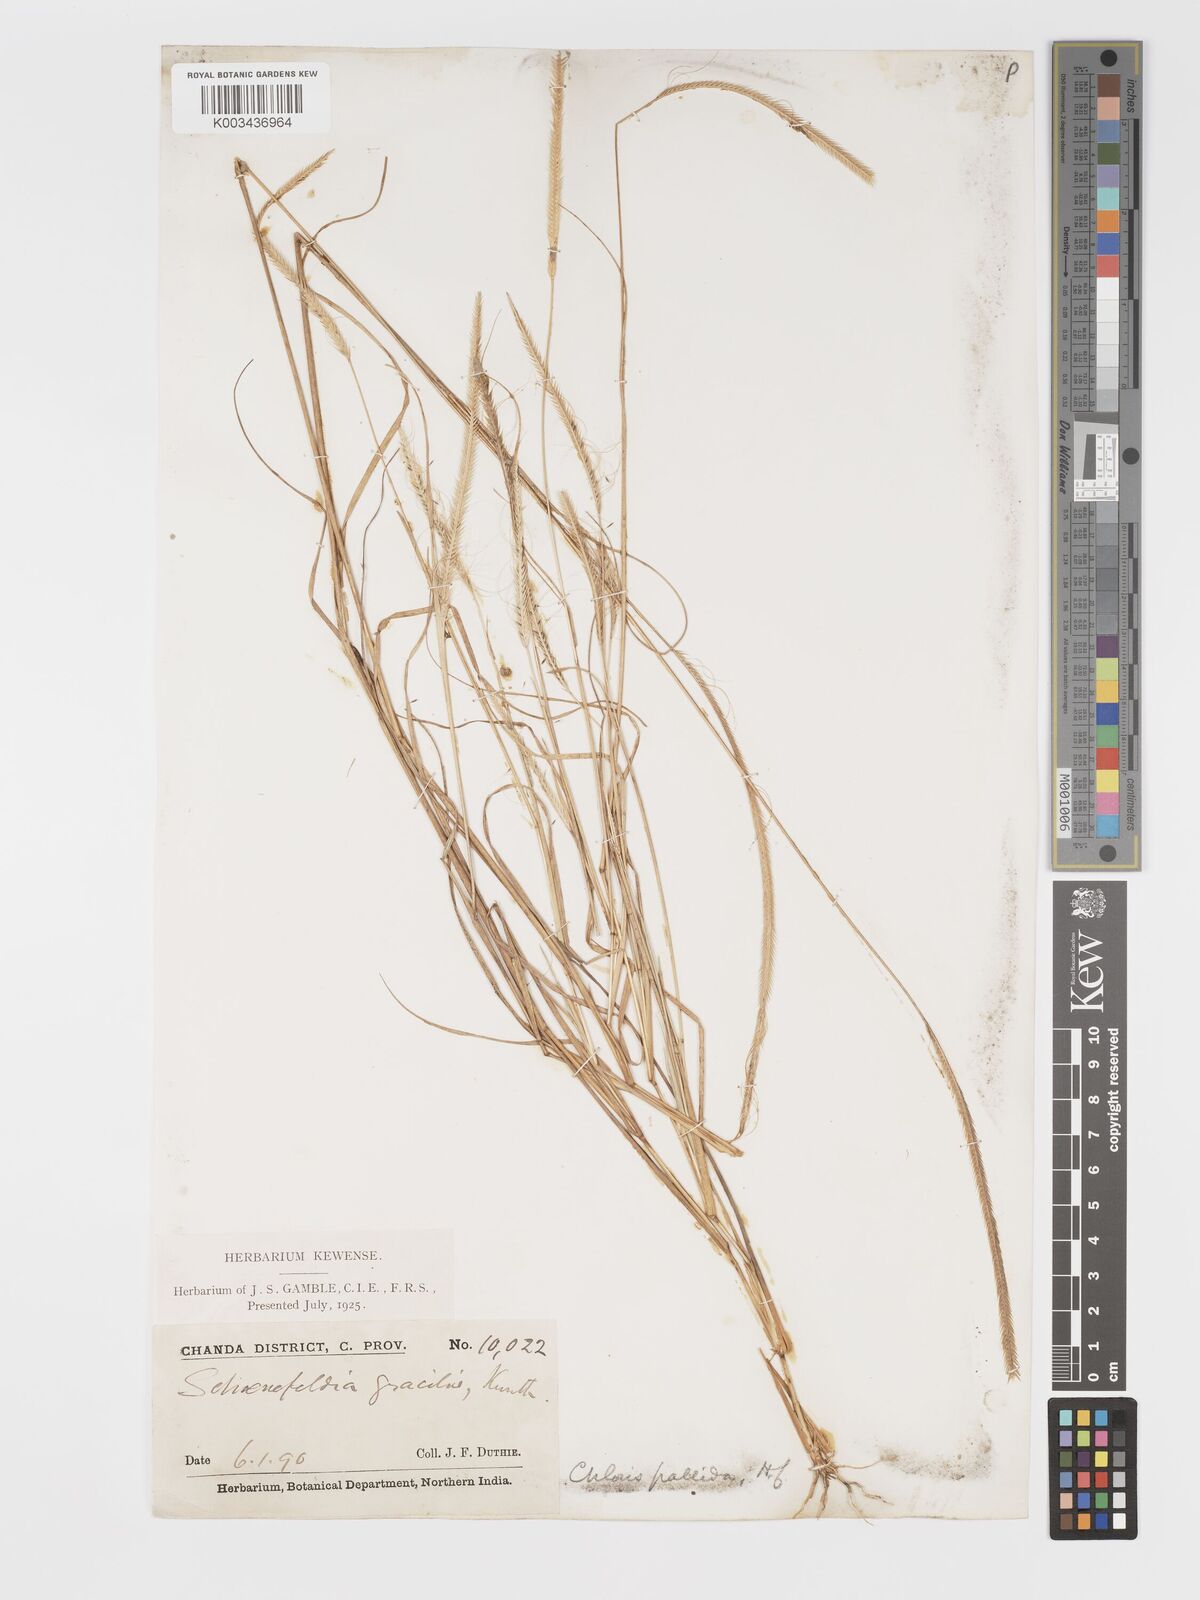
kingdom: Plantae
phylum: Tracheophyta
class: Liliopsida
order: Poales
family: Poaceae
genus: Schoenefeldia
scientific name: Schoenefeldia gracilis
